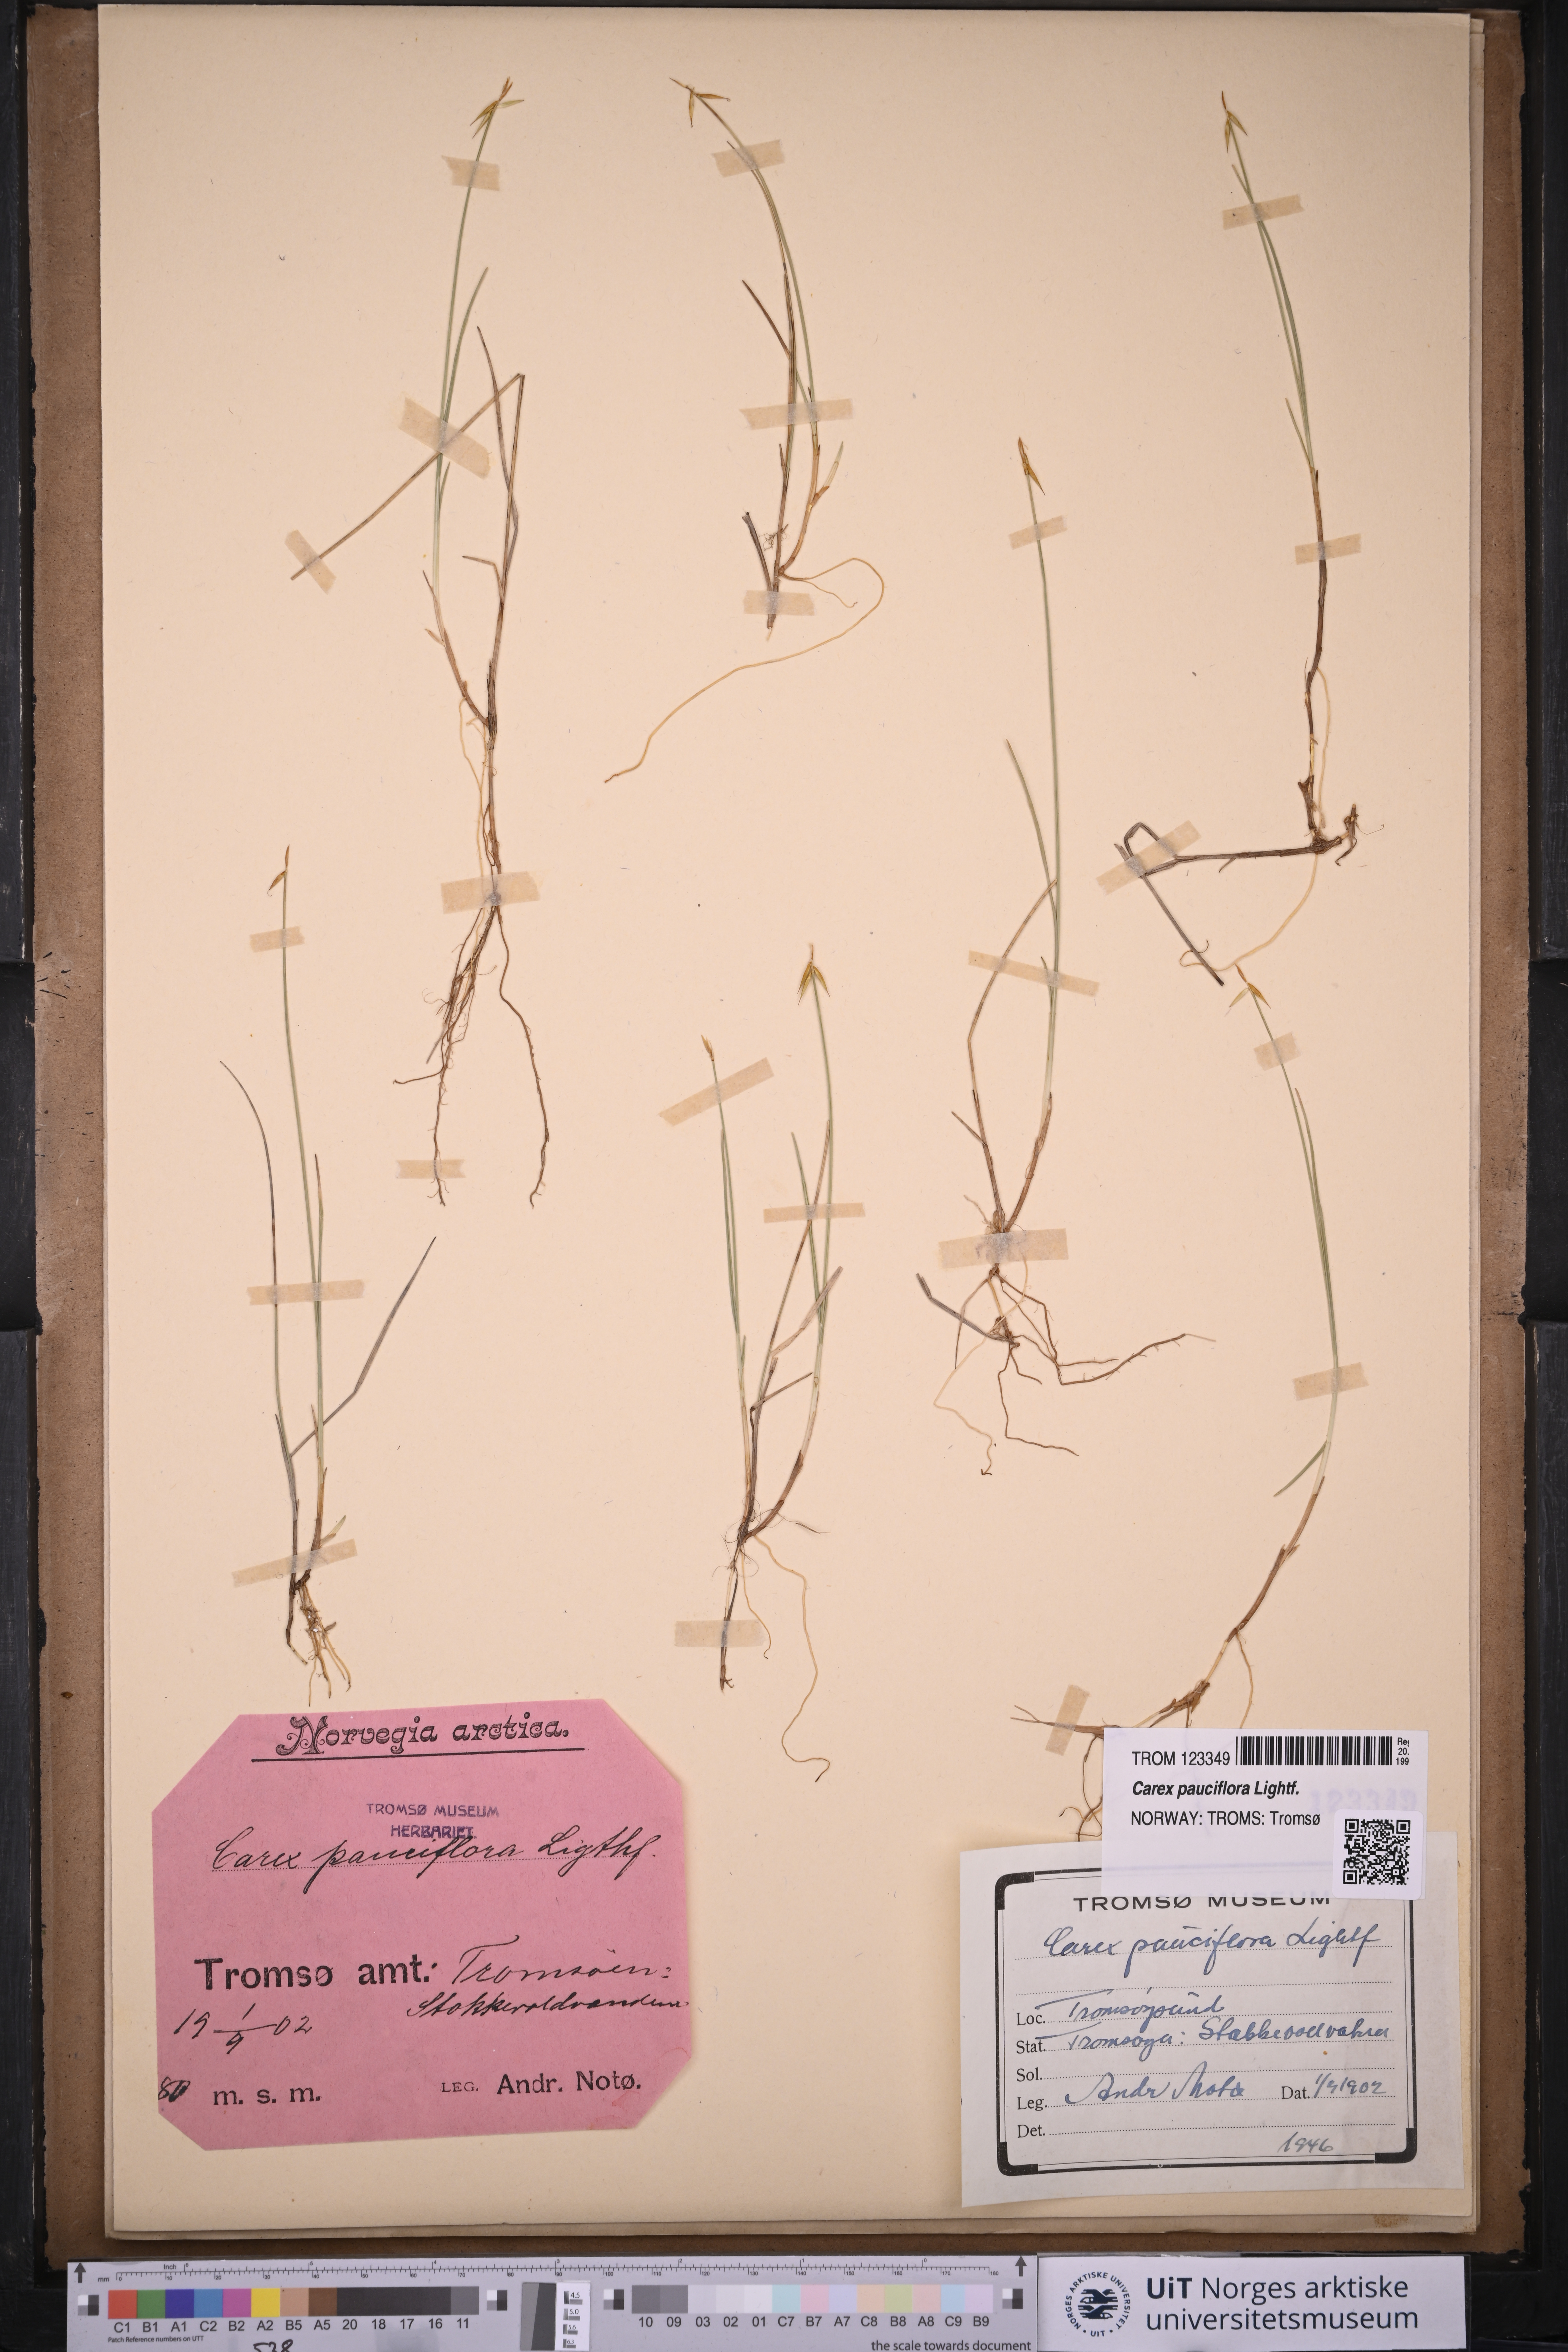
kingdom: Plantae
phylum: Tracheophyta
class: Liliopsida
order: Poales
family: Cyperaceae
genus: Carex
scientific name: Carex pauciflora
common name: Few-flowered sedge
